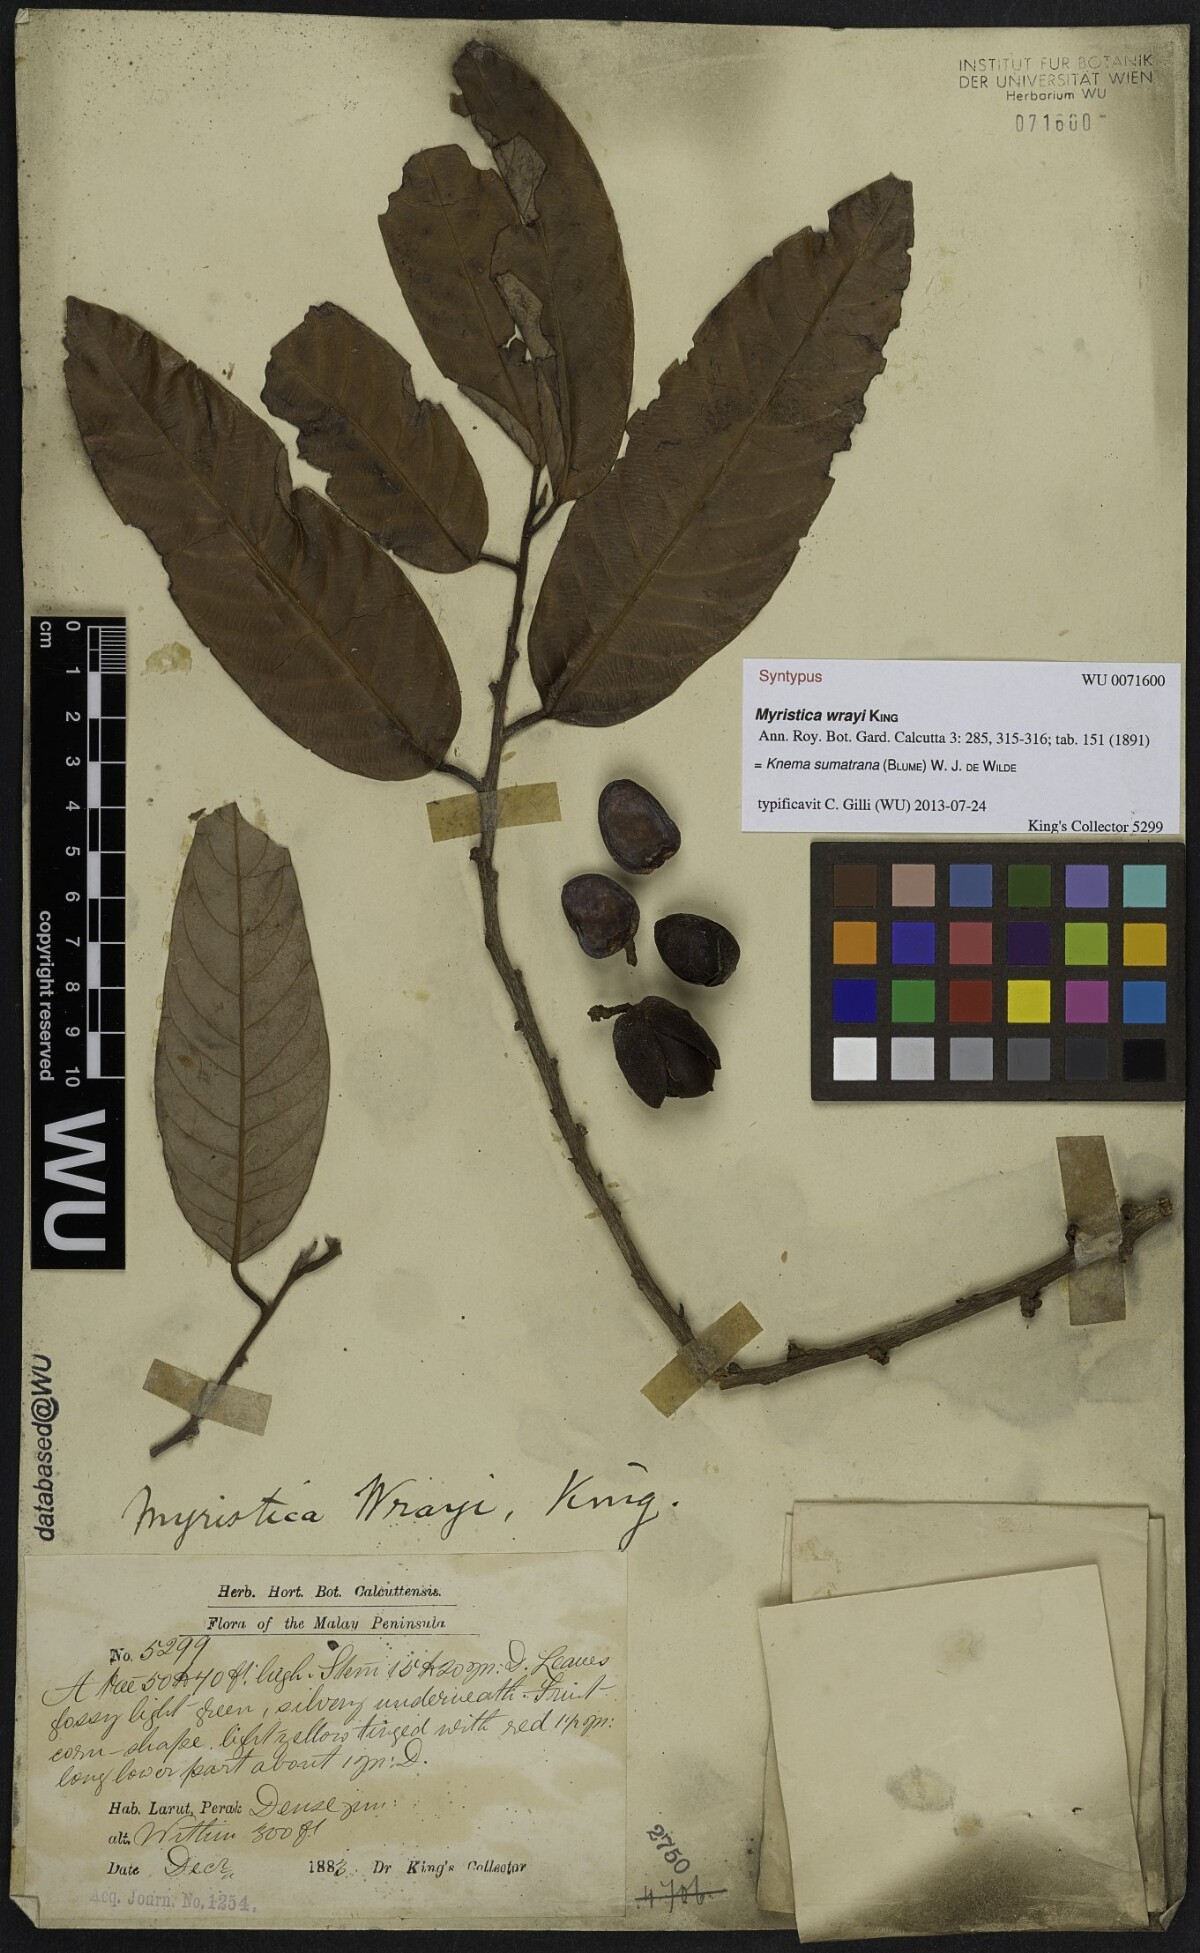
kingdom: Plantae
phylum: Tracheophyta
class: Magnoliopsida
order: Magnoliales
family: Myristicaceae
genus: Knema
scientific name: Knema sumatrana
